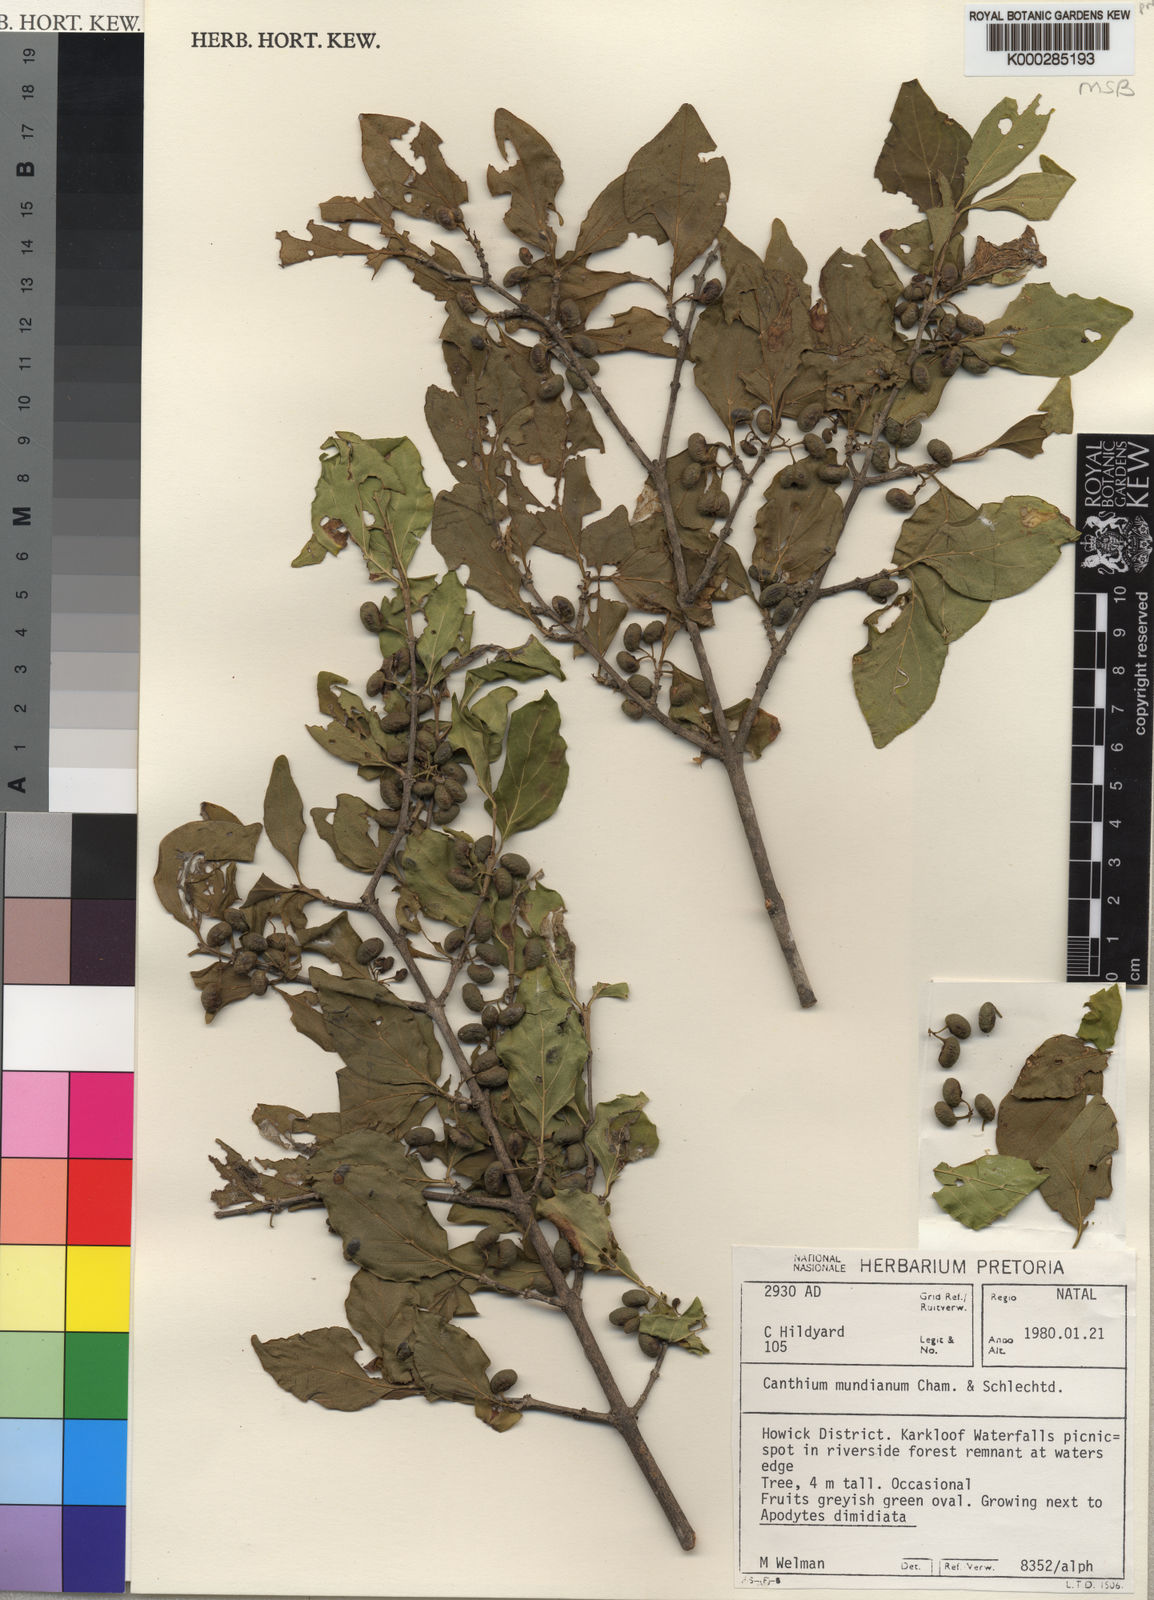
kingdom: Plantae
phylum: Tracheophyta
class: Magnoliopsida
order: Gentianales
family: Rubiaceae
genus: Afrocanthium
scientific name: Afrocanthium mundianum
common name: Rock-alder
